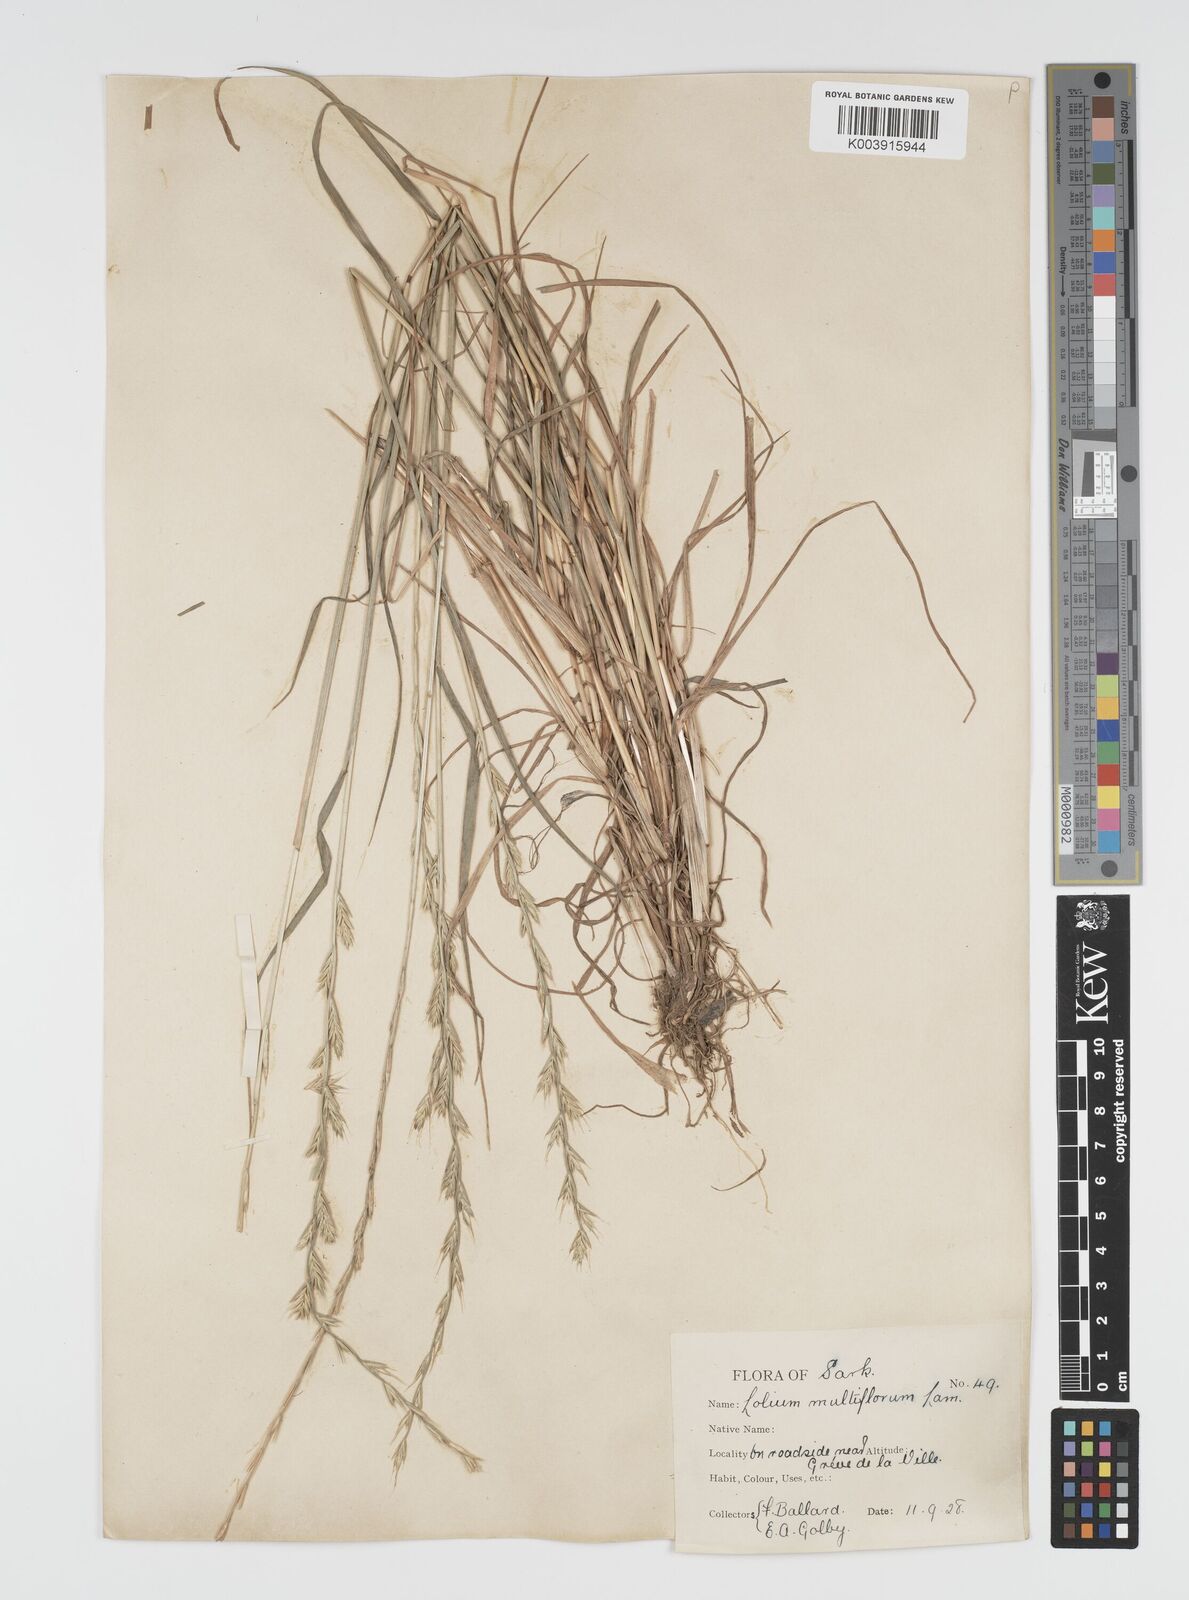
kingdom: Plantae
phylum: Tracheophyta
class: Liliopsida
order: Poales
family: Poaceae
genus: Lolium
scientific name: Lolium multiflorum
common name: Annual ryegrass
